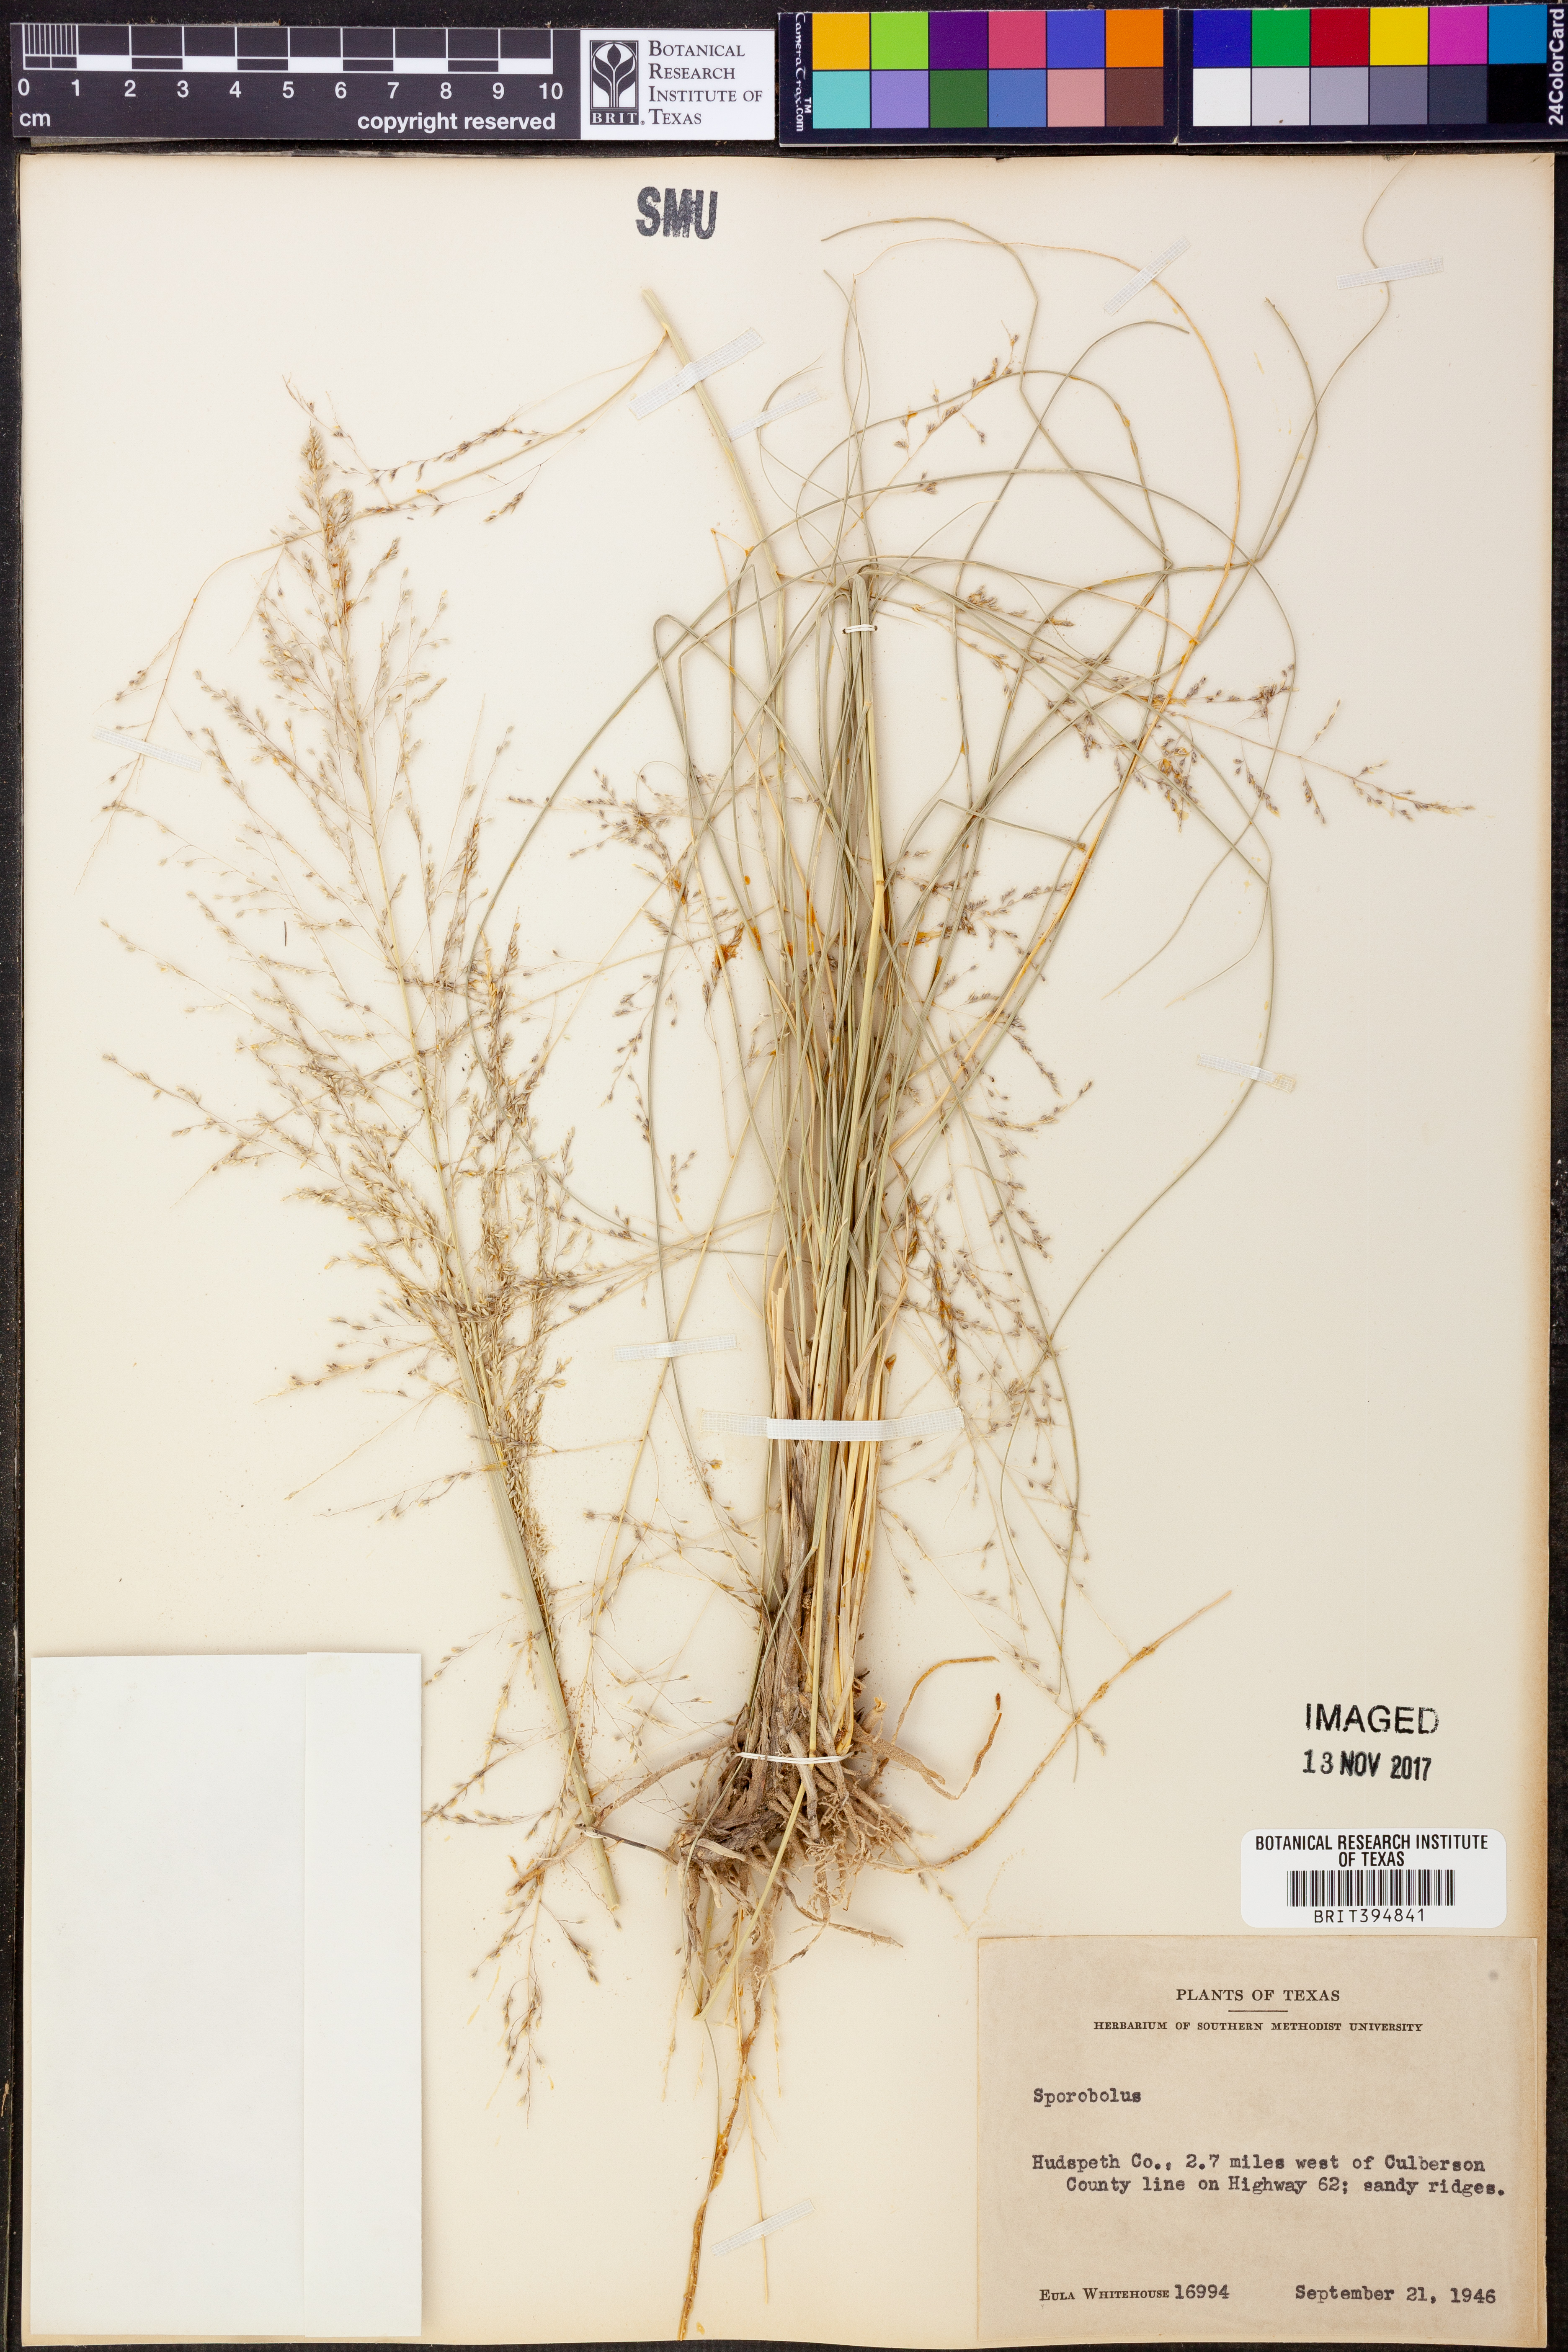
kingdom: Plantae
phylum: Tracheophyta
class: Liliopsida
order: Poales
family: Poaceae
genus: Sporobolus
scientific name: Sporobolus
